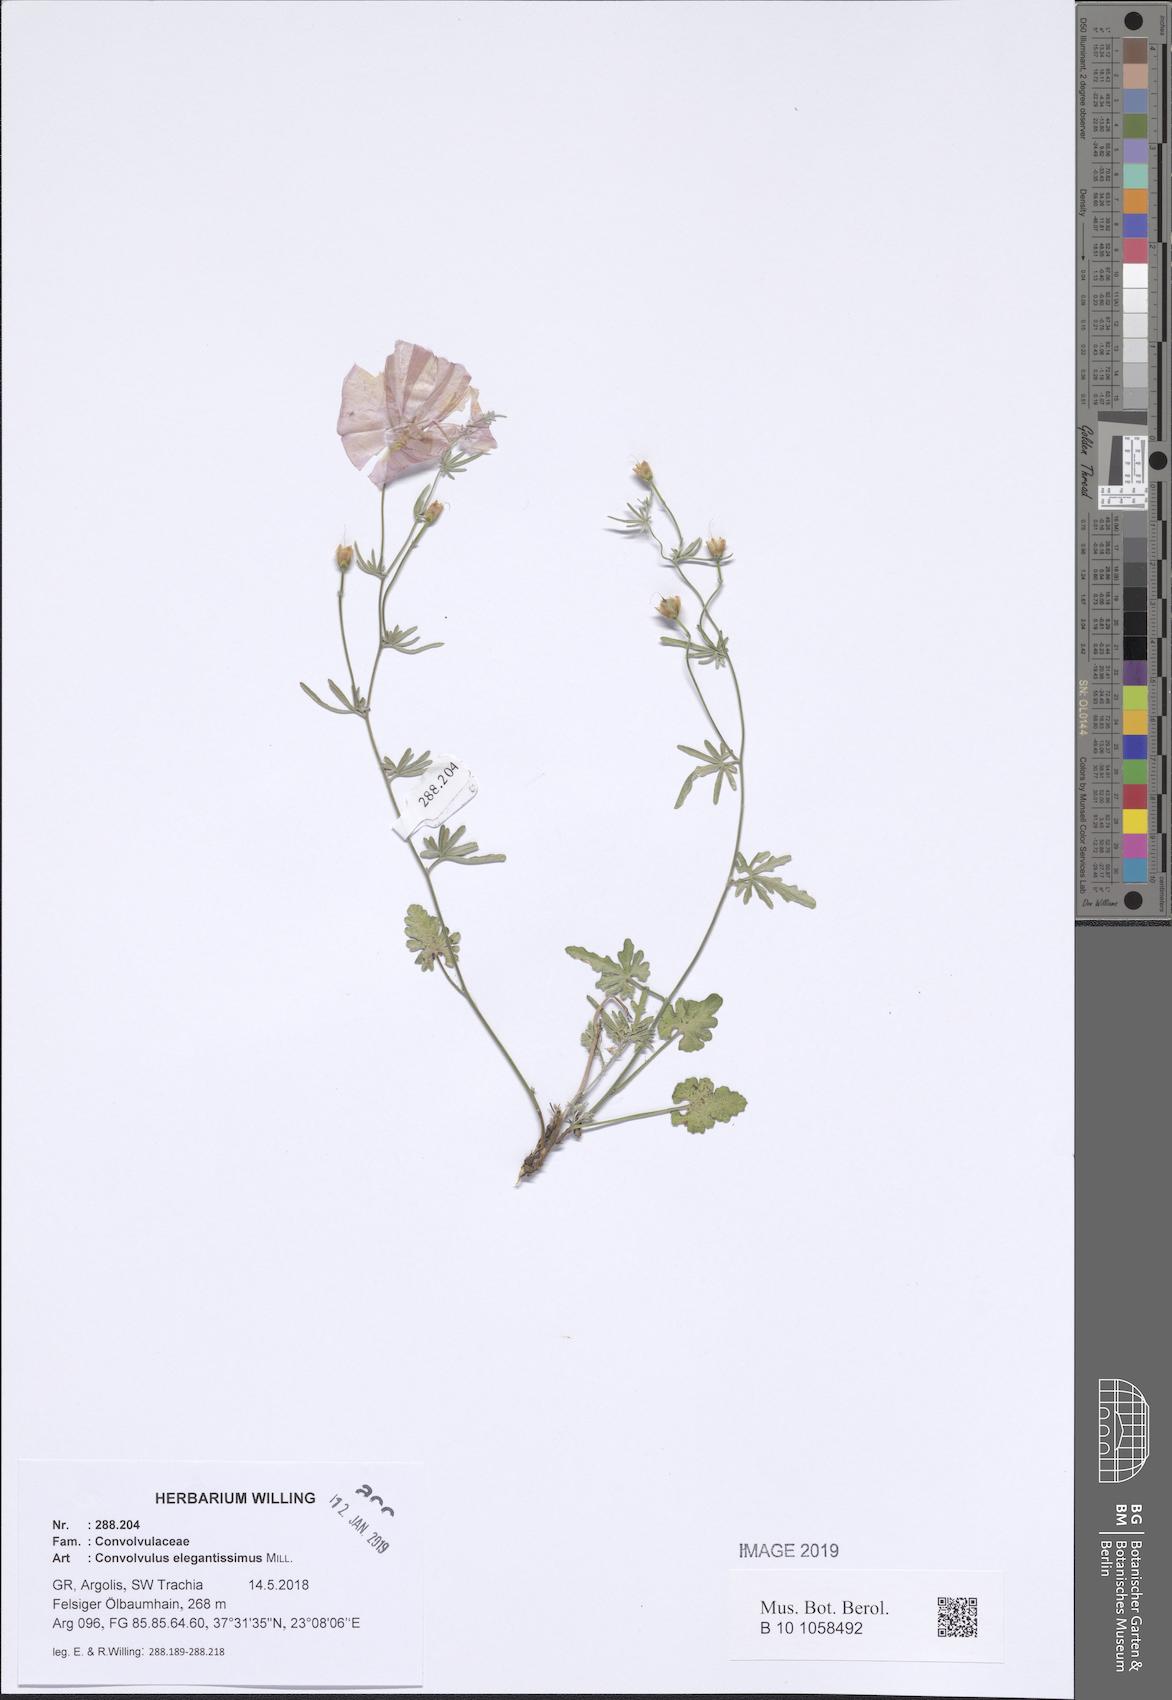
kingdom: Plantae
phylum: Tracheophyta
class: Magnoliopsida
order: Solanales
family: Convolvulaceae
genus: Convolvulus
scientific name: Convolvulus elegantissimus
